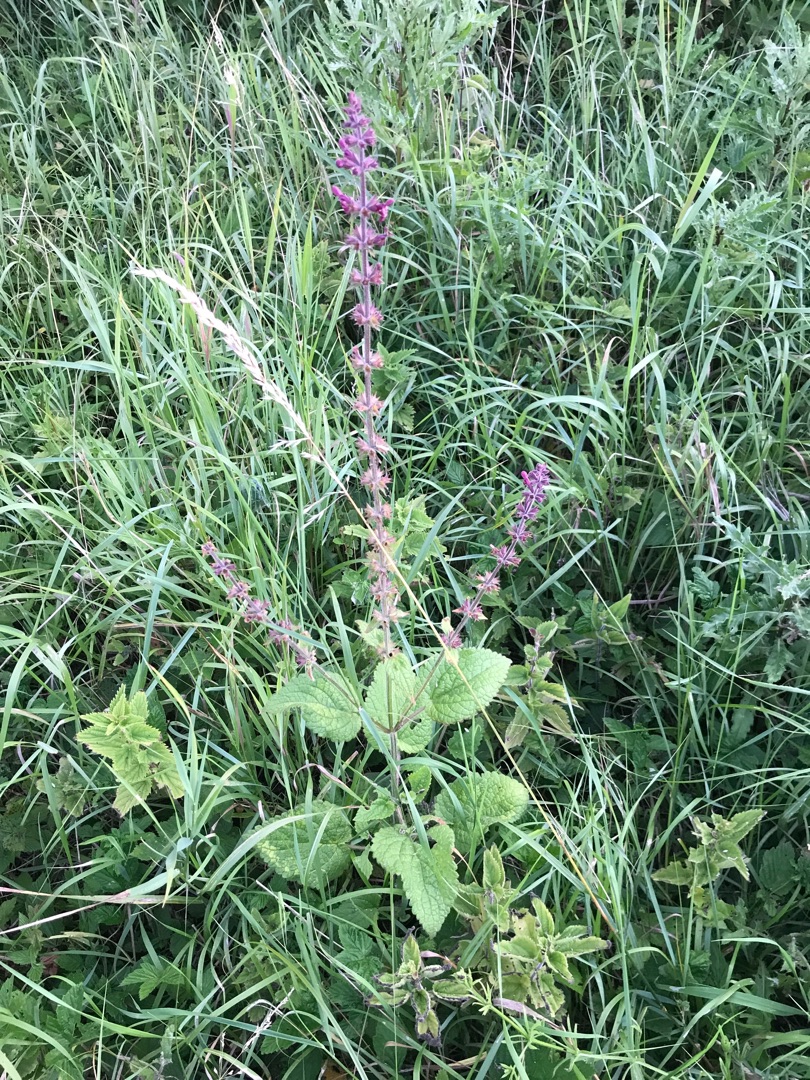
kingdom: Plantae
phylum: Tracheophyta
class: Magnoliopsida
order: Lamiales
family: Lamiaceae
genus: Stachys
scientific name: Stachys sylvatica
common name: Skov-galtetand
